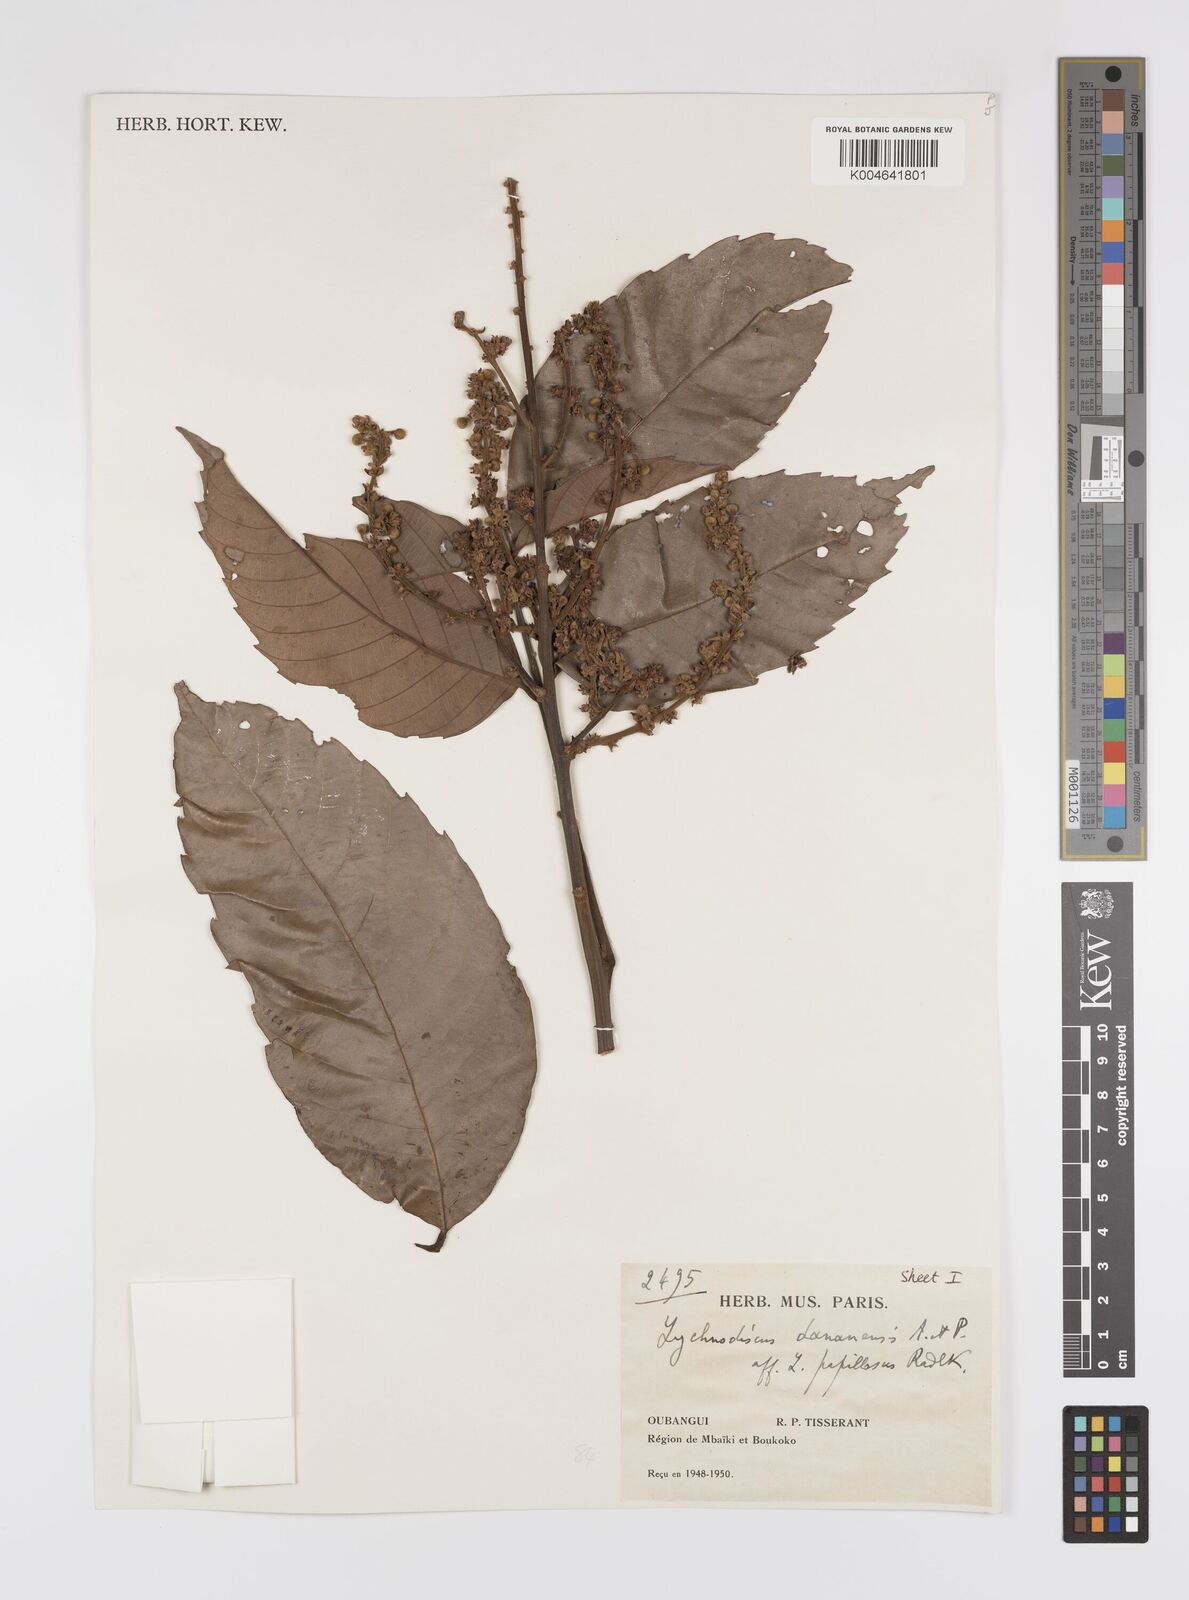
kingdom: Plantae
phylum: Tracheophyta
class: Magnoliopsida
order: Sapindales
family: Sapindaceae
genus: Lychnodiscus
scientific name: Lychnodiscus dananensis
